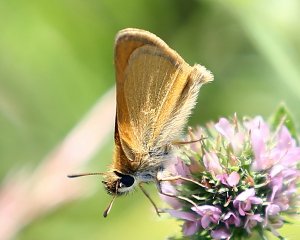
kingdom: Animalia
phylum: Arthropoda
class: Insecta
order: Lepidoptera
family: Hesperiidae
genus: Thymelicus
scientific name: Thymelicus lineola
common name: European Skipper
